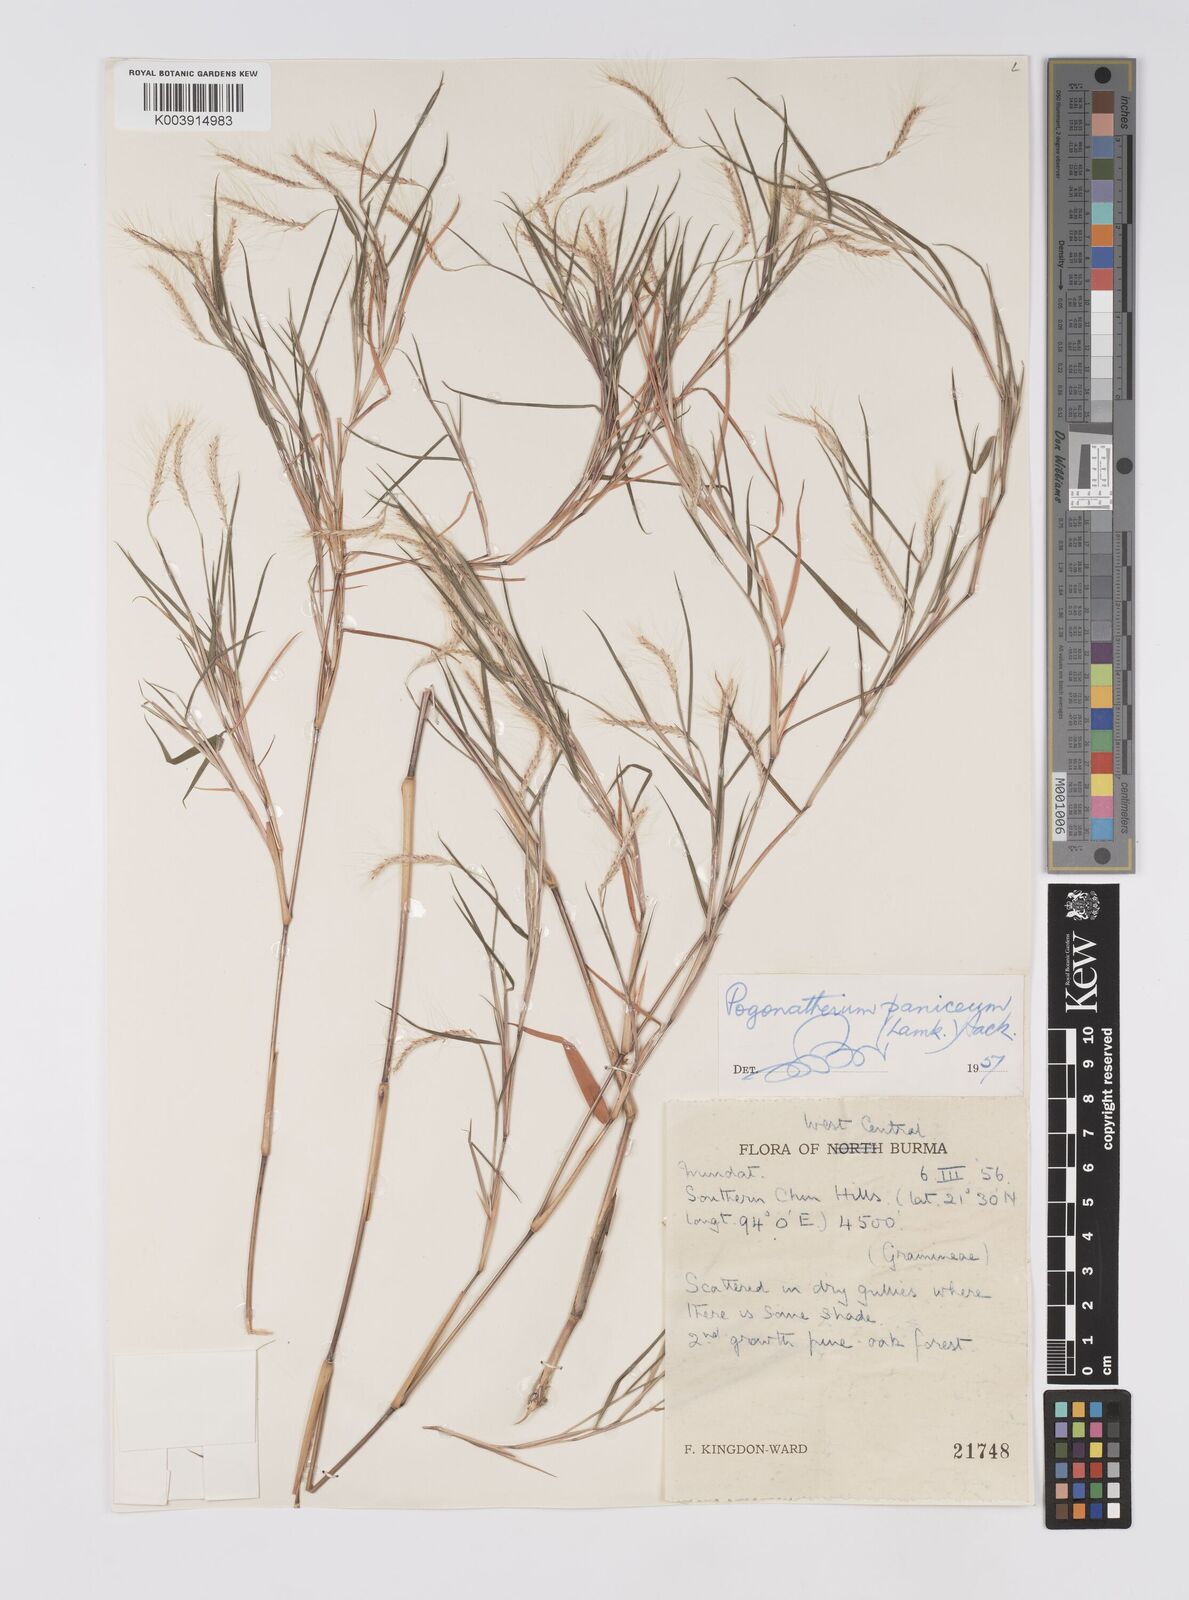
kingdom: Plantae
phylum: Tracheophyta
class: Liliopsida
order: Poales
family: Poaceae
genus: Pogonatherum
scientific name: Pogonatherum paniceum
